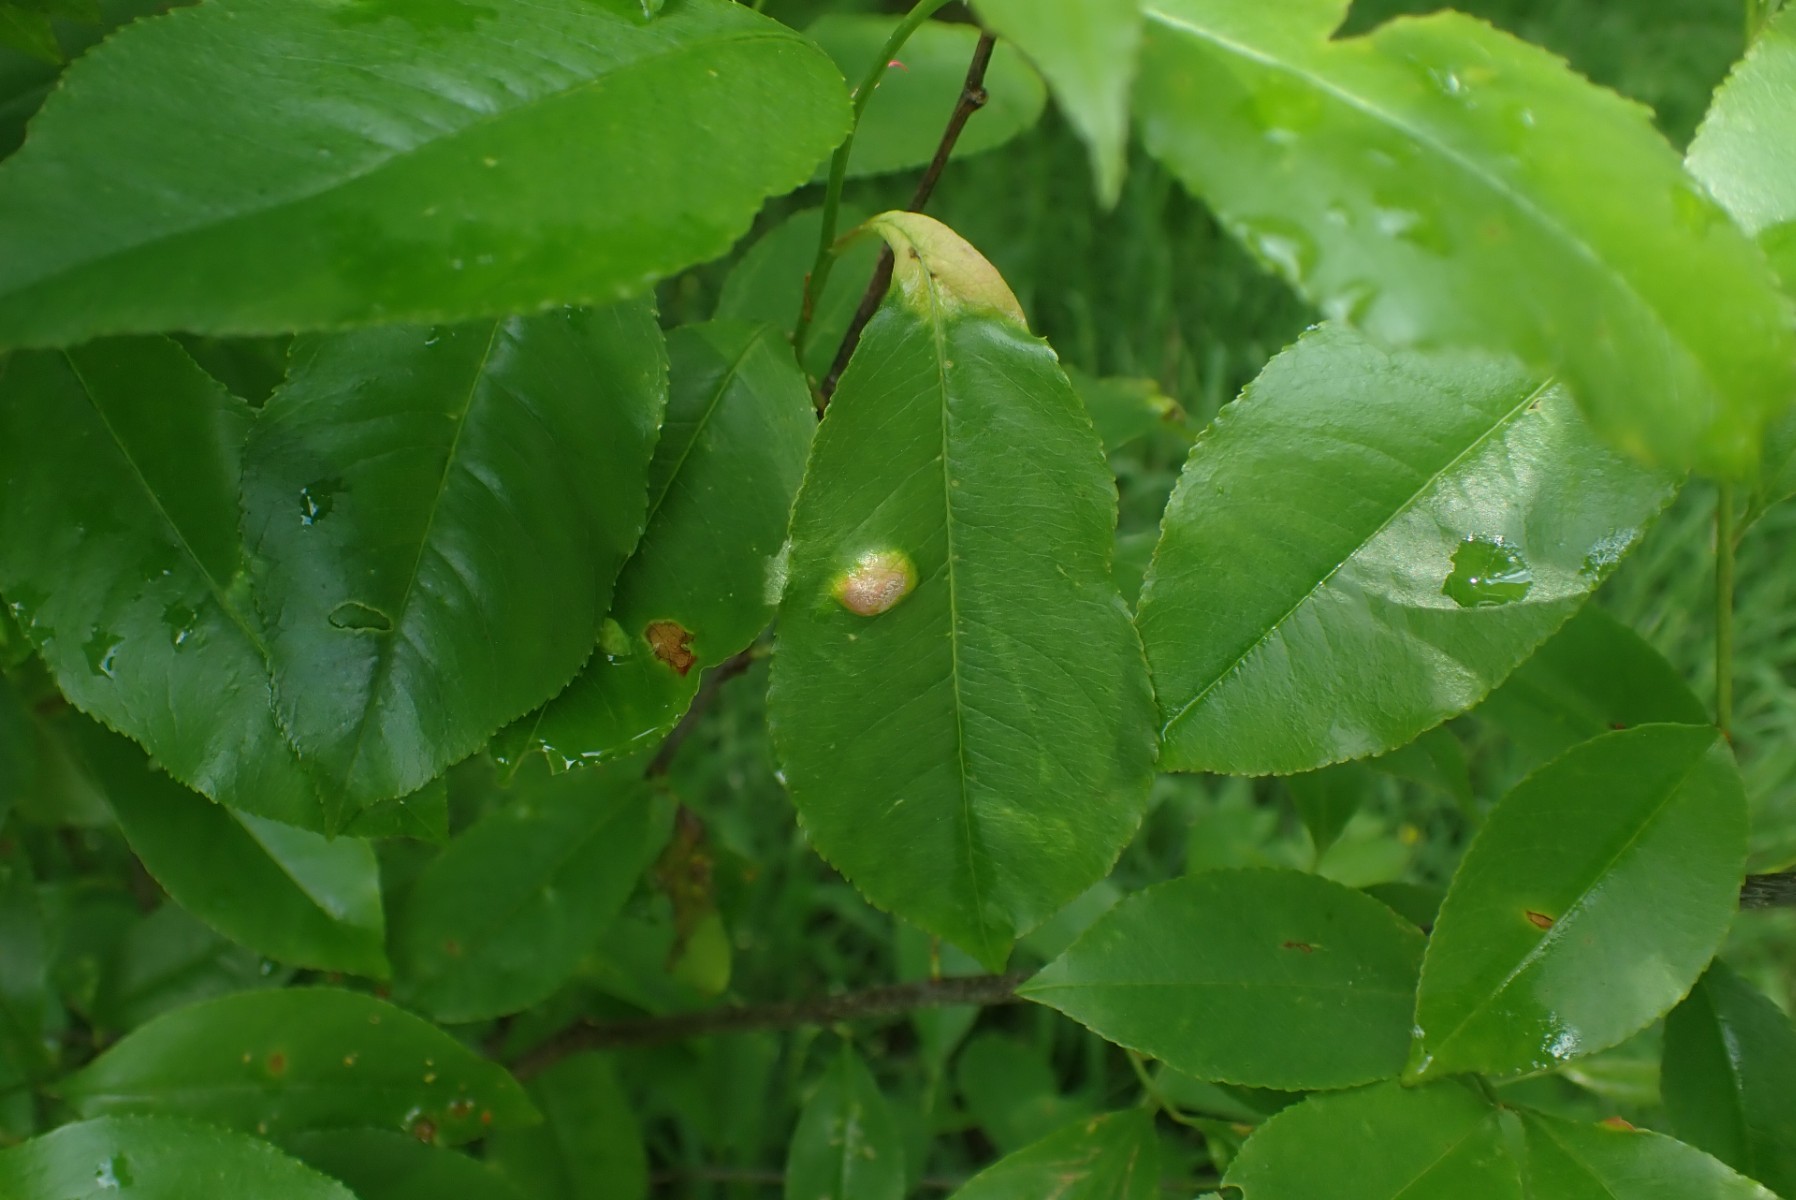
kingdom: Fungi
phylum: Ascomycota
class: Taphrinomycetes
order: Taphrinales
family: Taphrinaceae
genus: Taphrina
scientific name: Taphrina farlowii
